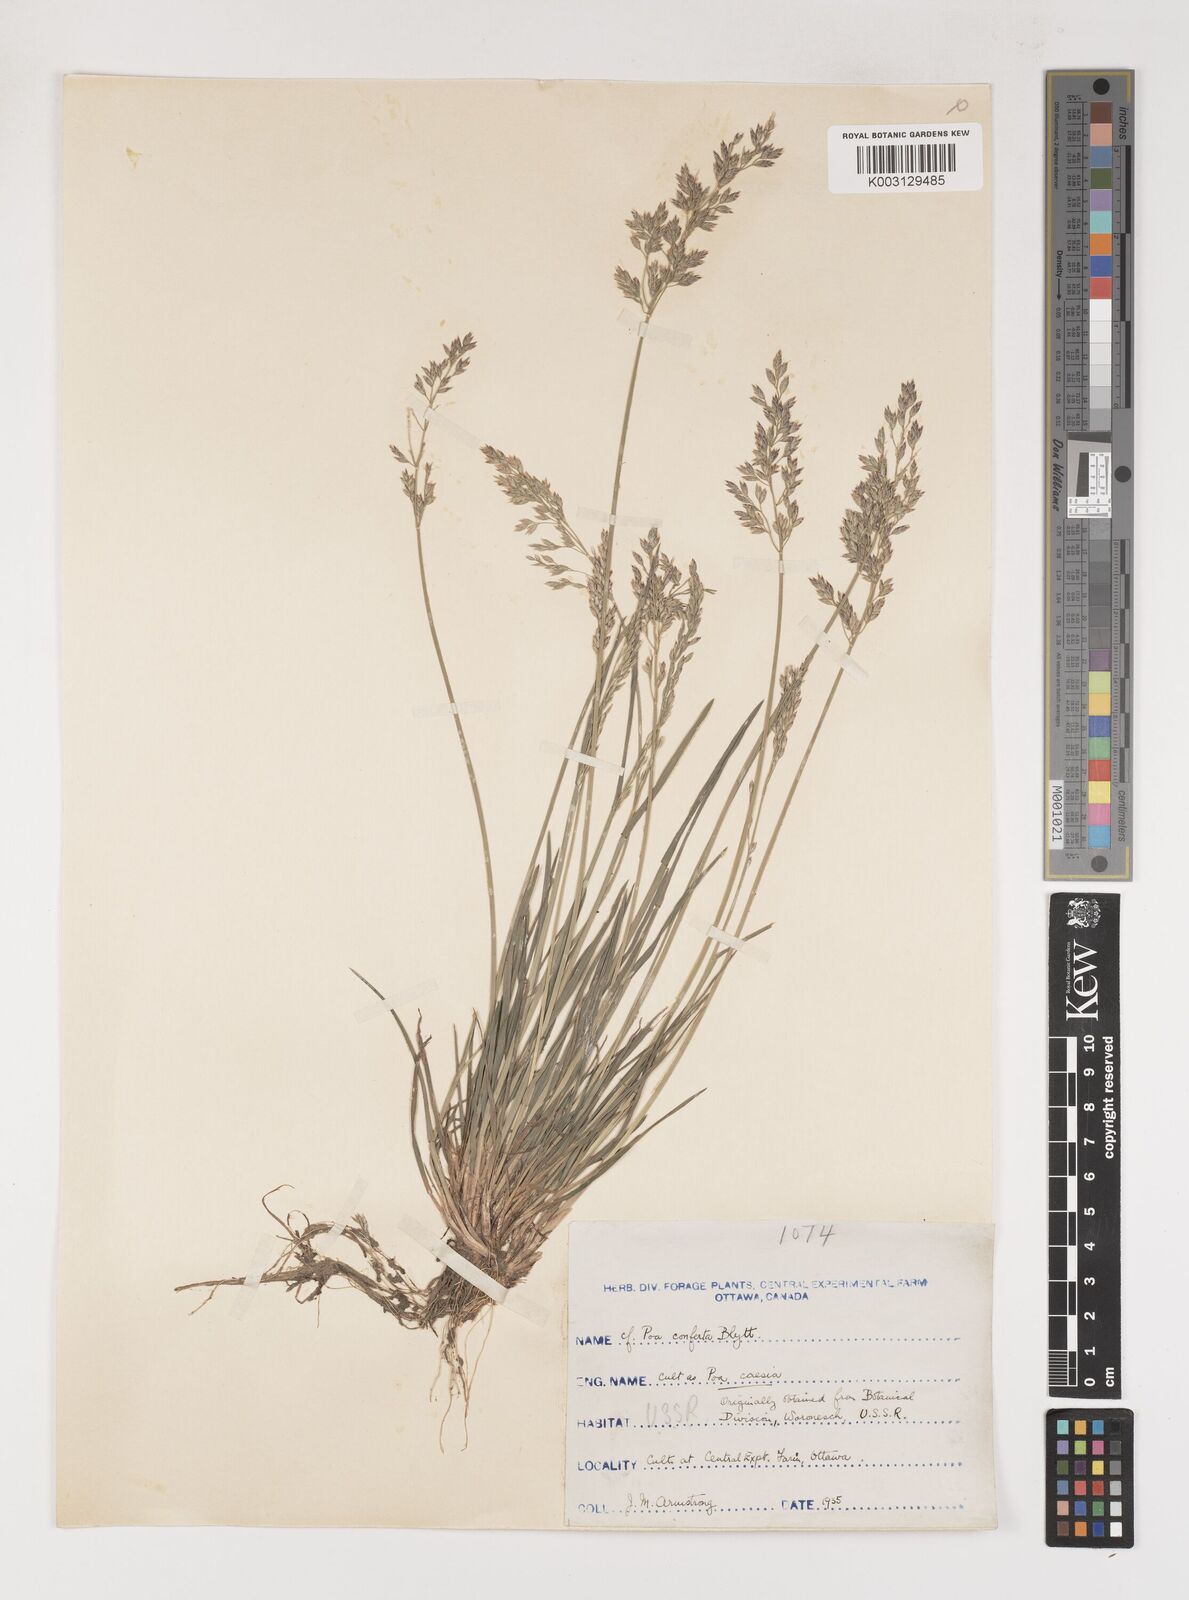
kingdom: Plantae
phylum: Tracheophyta
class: Liliopsida
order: Poales
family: Poaceae
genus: Poa
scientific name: Poa glauca
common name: Glaucous bluegrass
